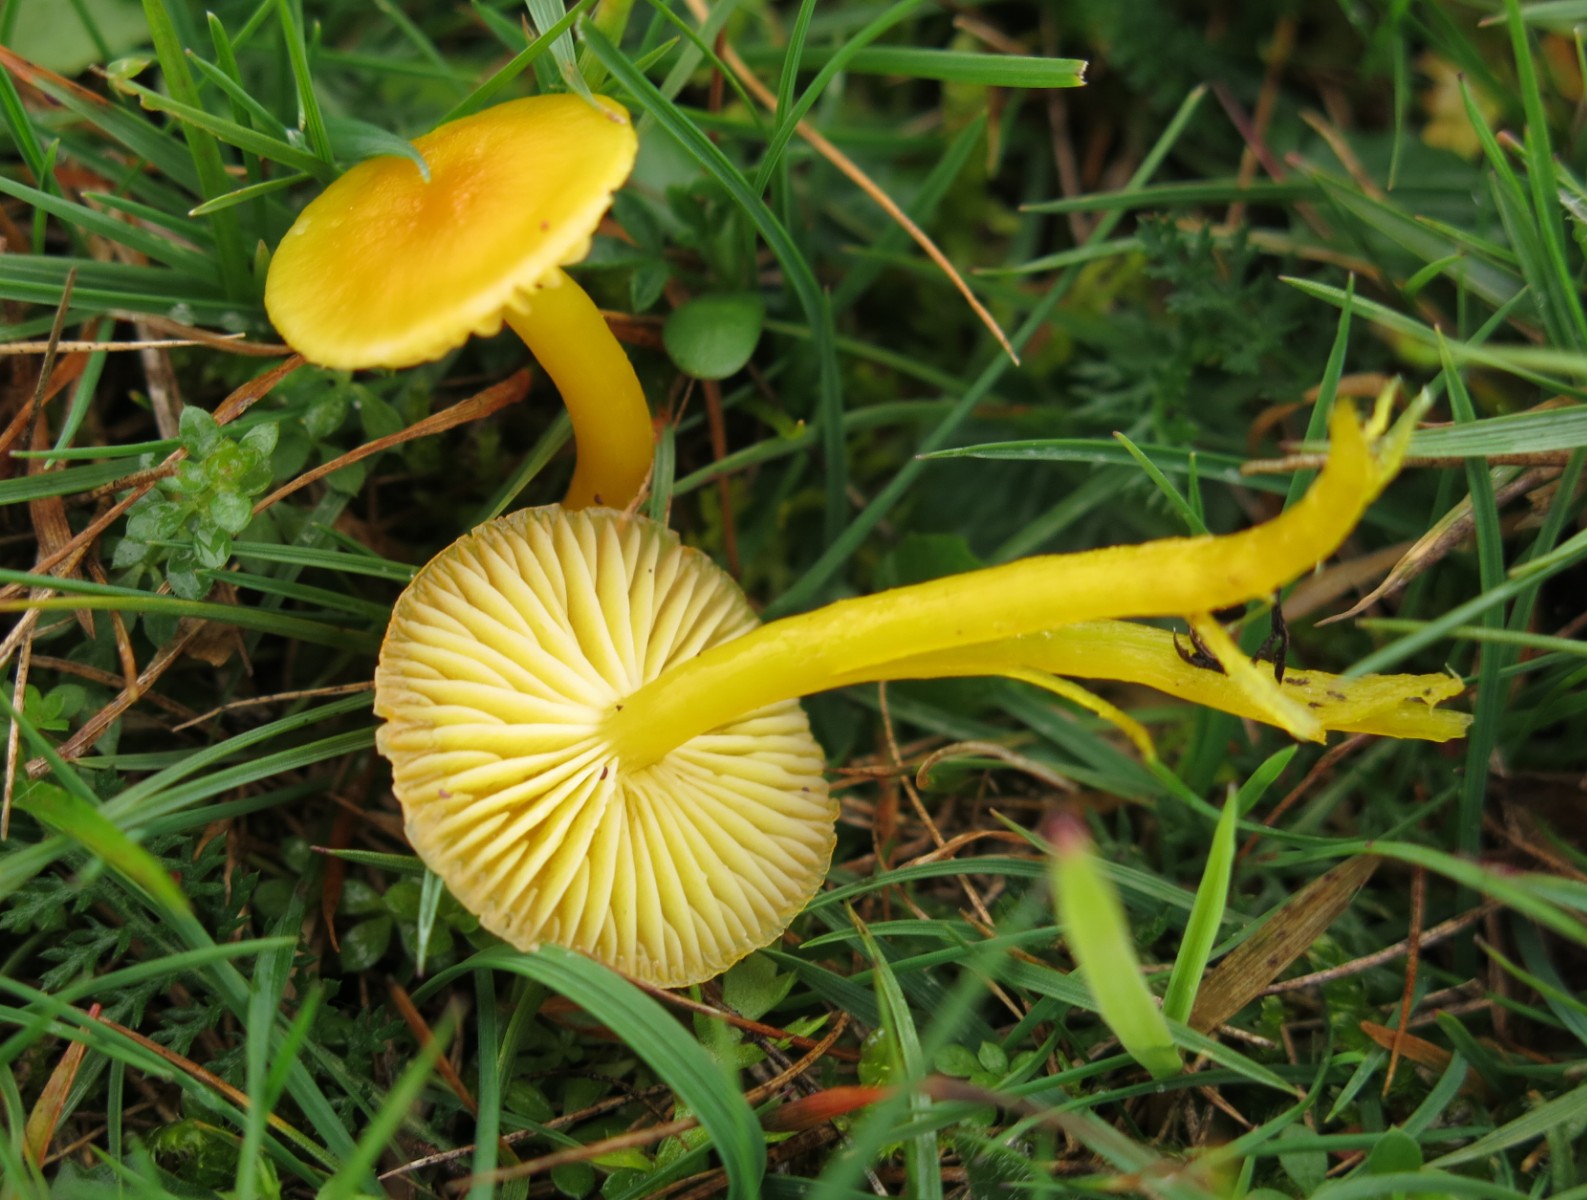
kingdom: Fungi
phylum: Basidiomycota
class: Agaricomycetes
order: Agaricales
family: Hygrophoraceae
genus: Hygrocybe
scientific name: Hygrocybe ceracea
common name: voksgul vokshat
